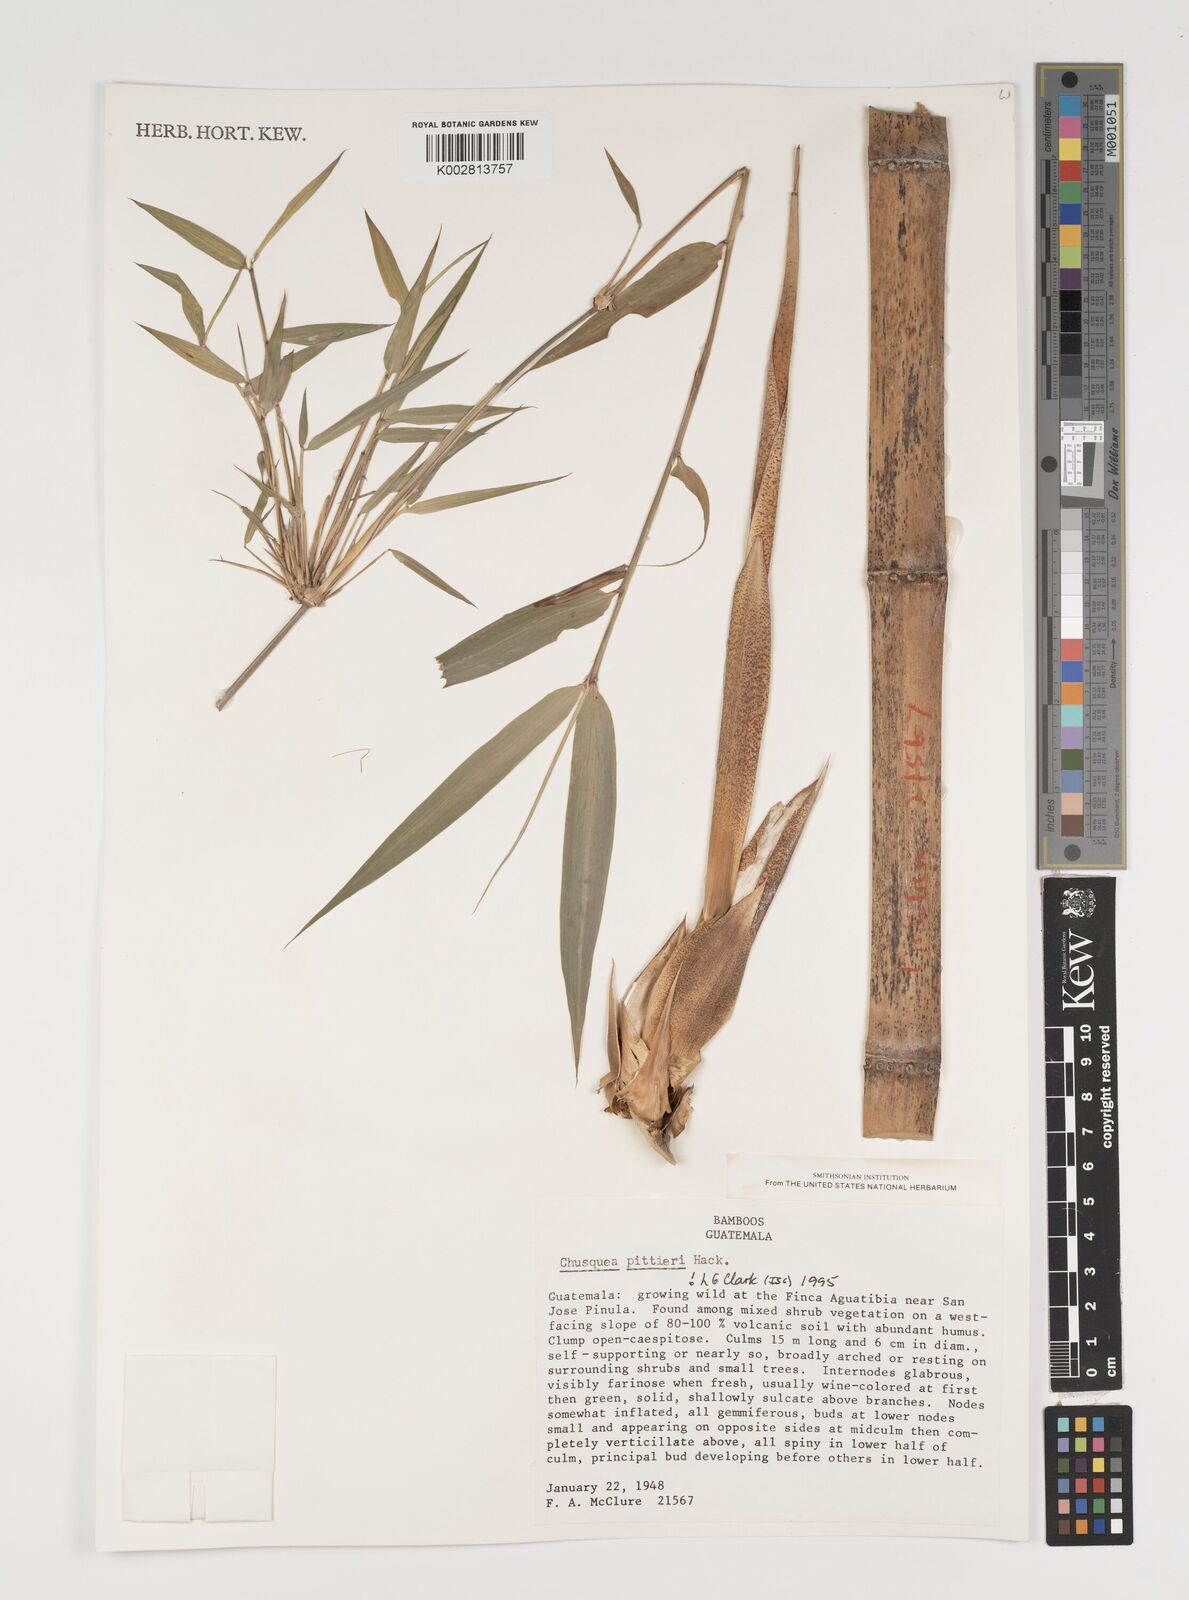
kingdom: Plantae
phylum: Tracheophyta
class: Liliopsida
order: Poales
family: Poaceae
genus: Chusquea
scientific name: Chusquea pittieri
